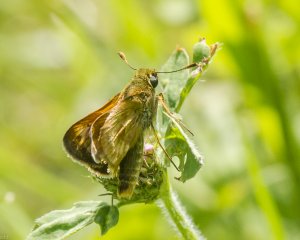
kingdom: Animalia
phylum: Arthropoda
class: Insecta
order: Lepidoptera
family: Hesperiidae
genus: Polites
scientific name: Polites
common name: Long Dash Skipper
